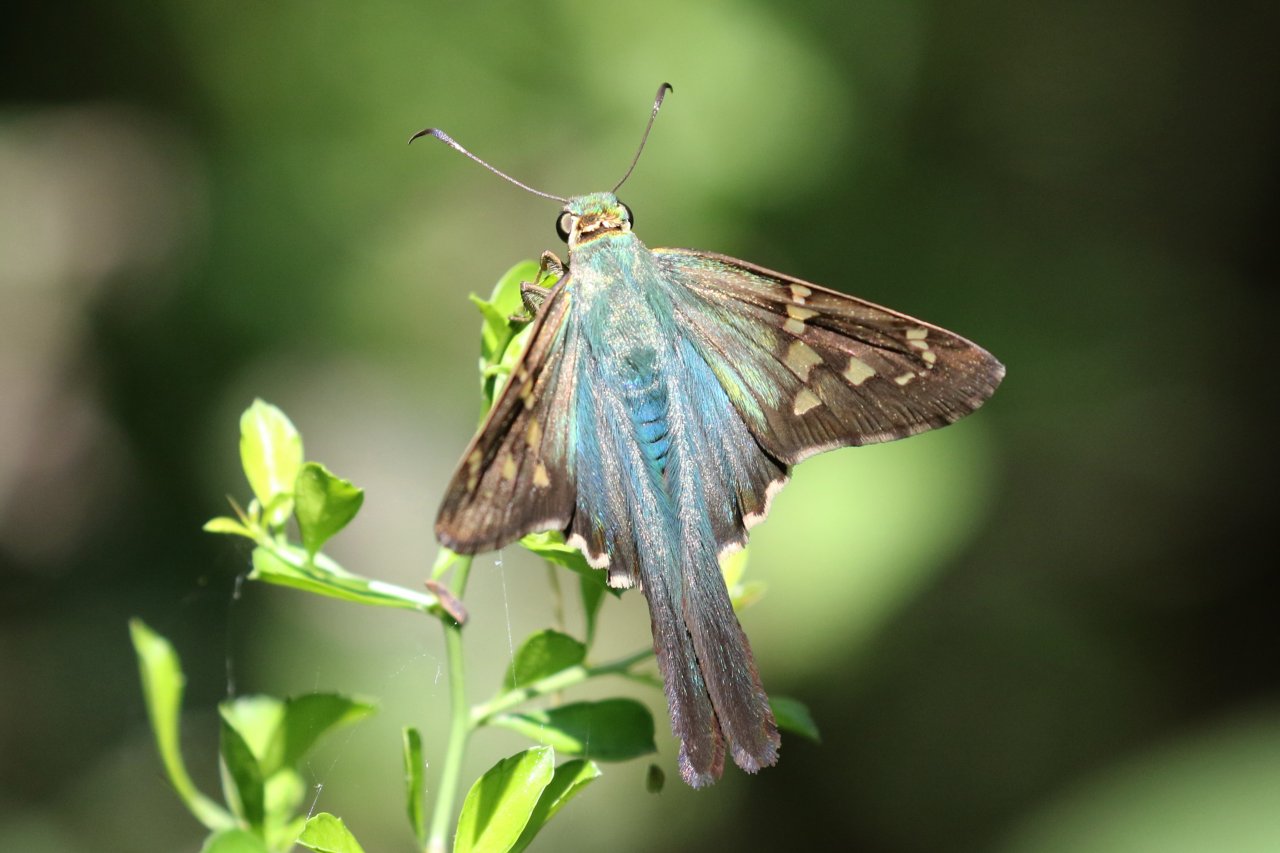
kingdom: Animalia
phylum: Arthropoda
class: Insecta
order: Lepidoptera
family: Hesperiidae
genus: Urbanus
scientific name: Urbanus proteus
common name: Long-tailed Skipper
